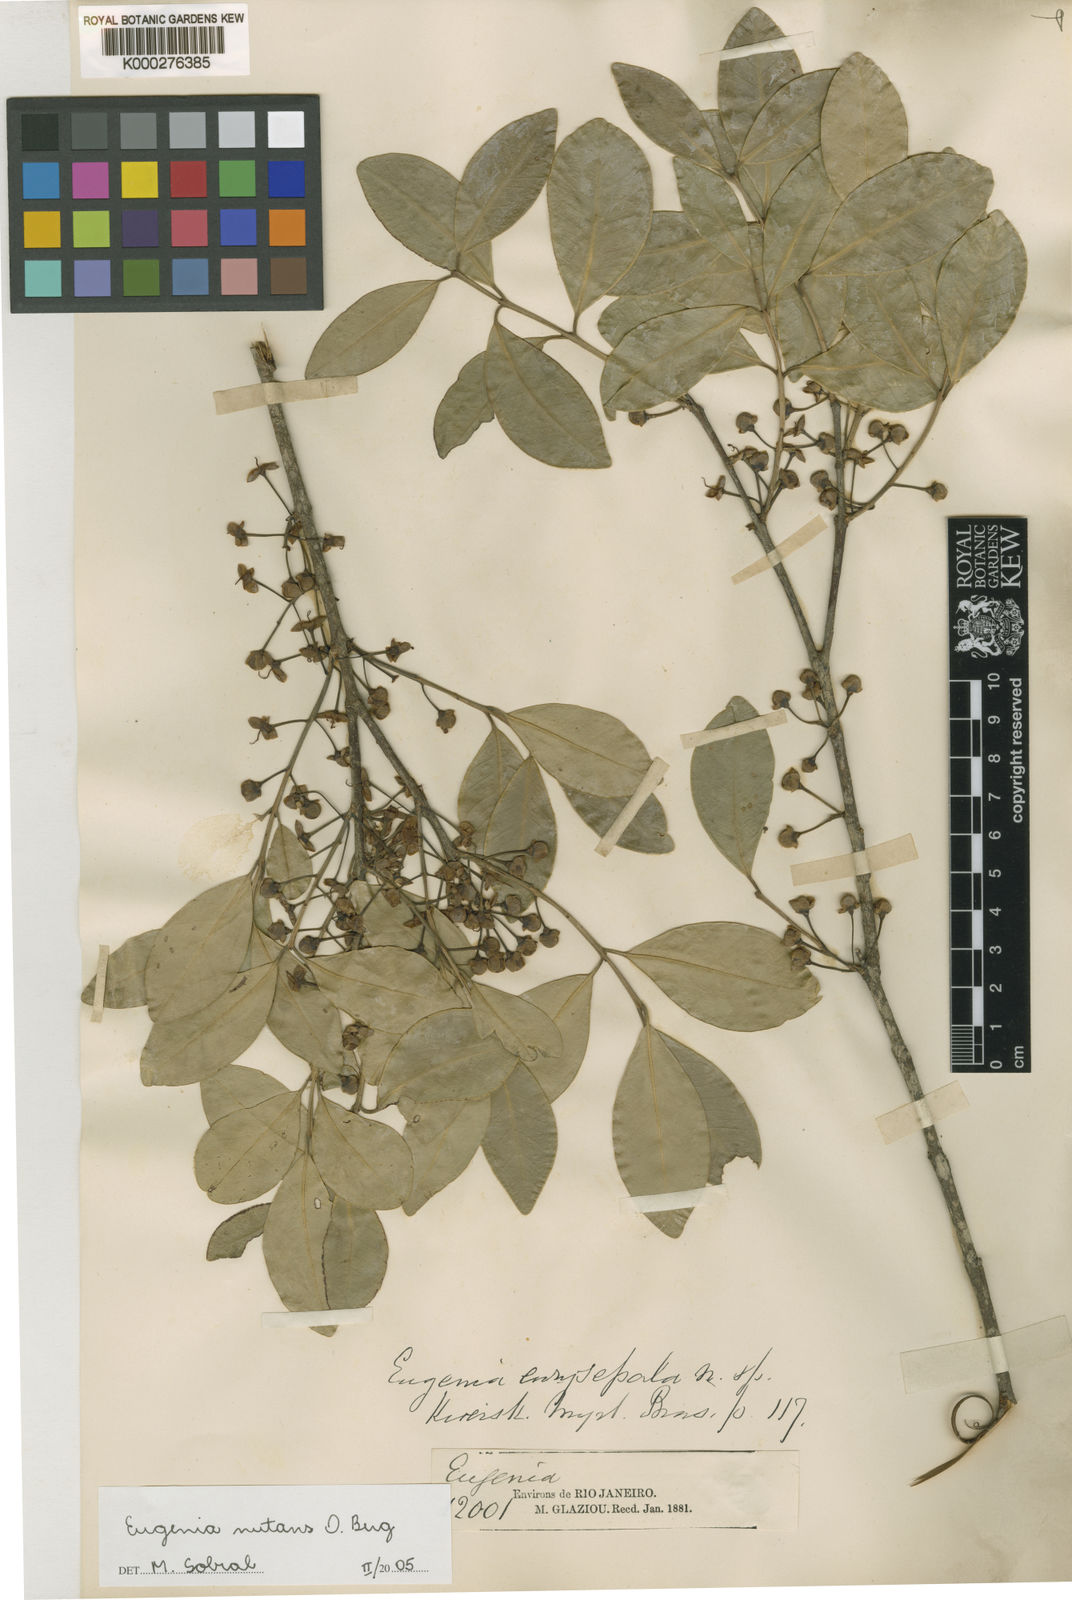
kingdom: Plantae
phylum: Tracheophyta
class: Magnoliopsida
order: Myrtales
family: Myrtaceae
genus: Eugenia
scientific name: Eugenia nutans
